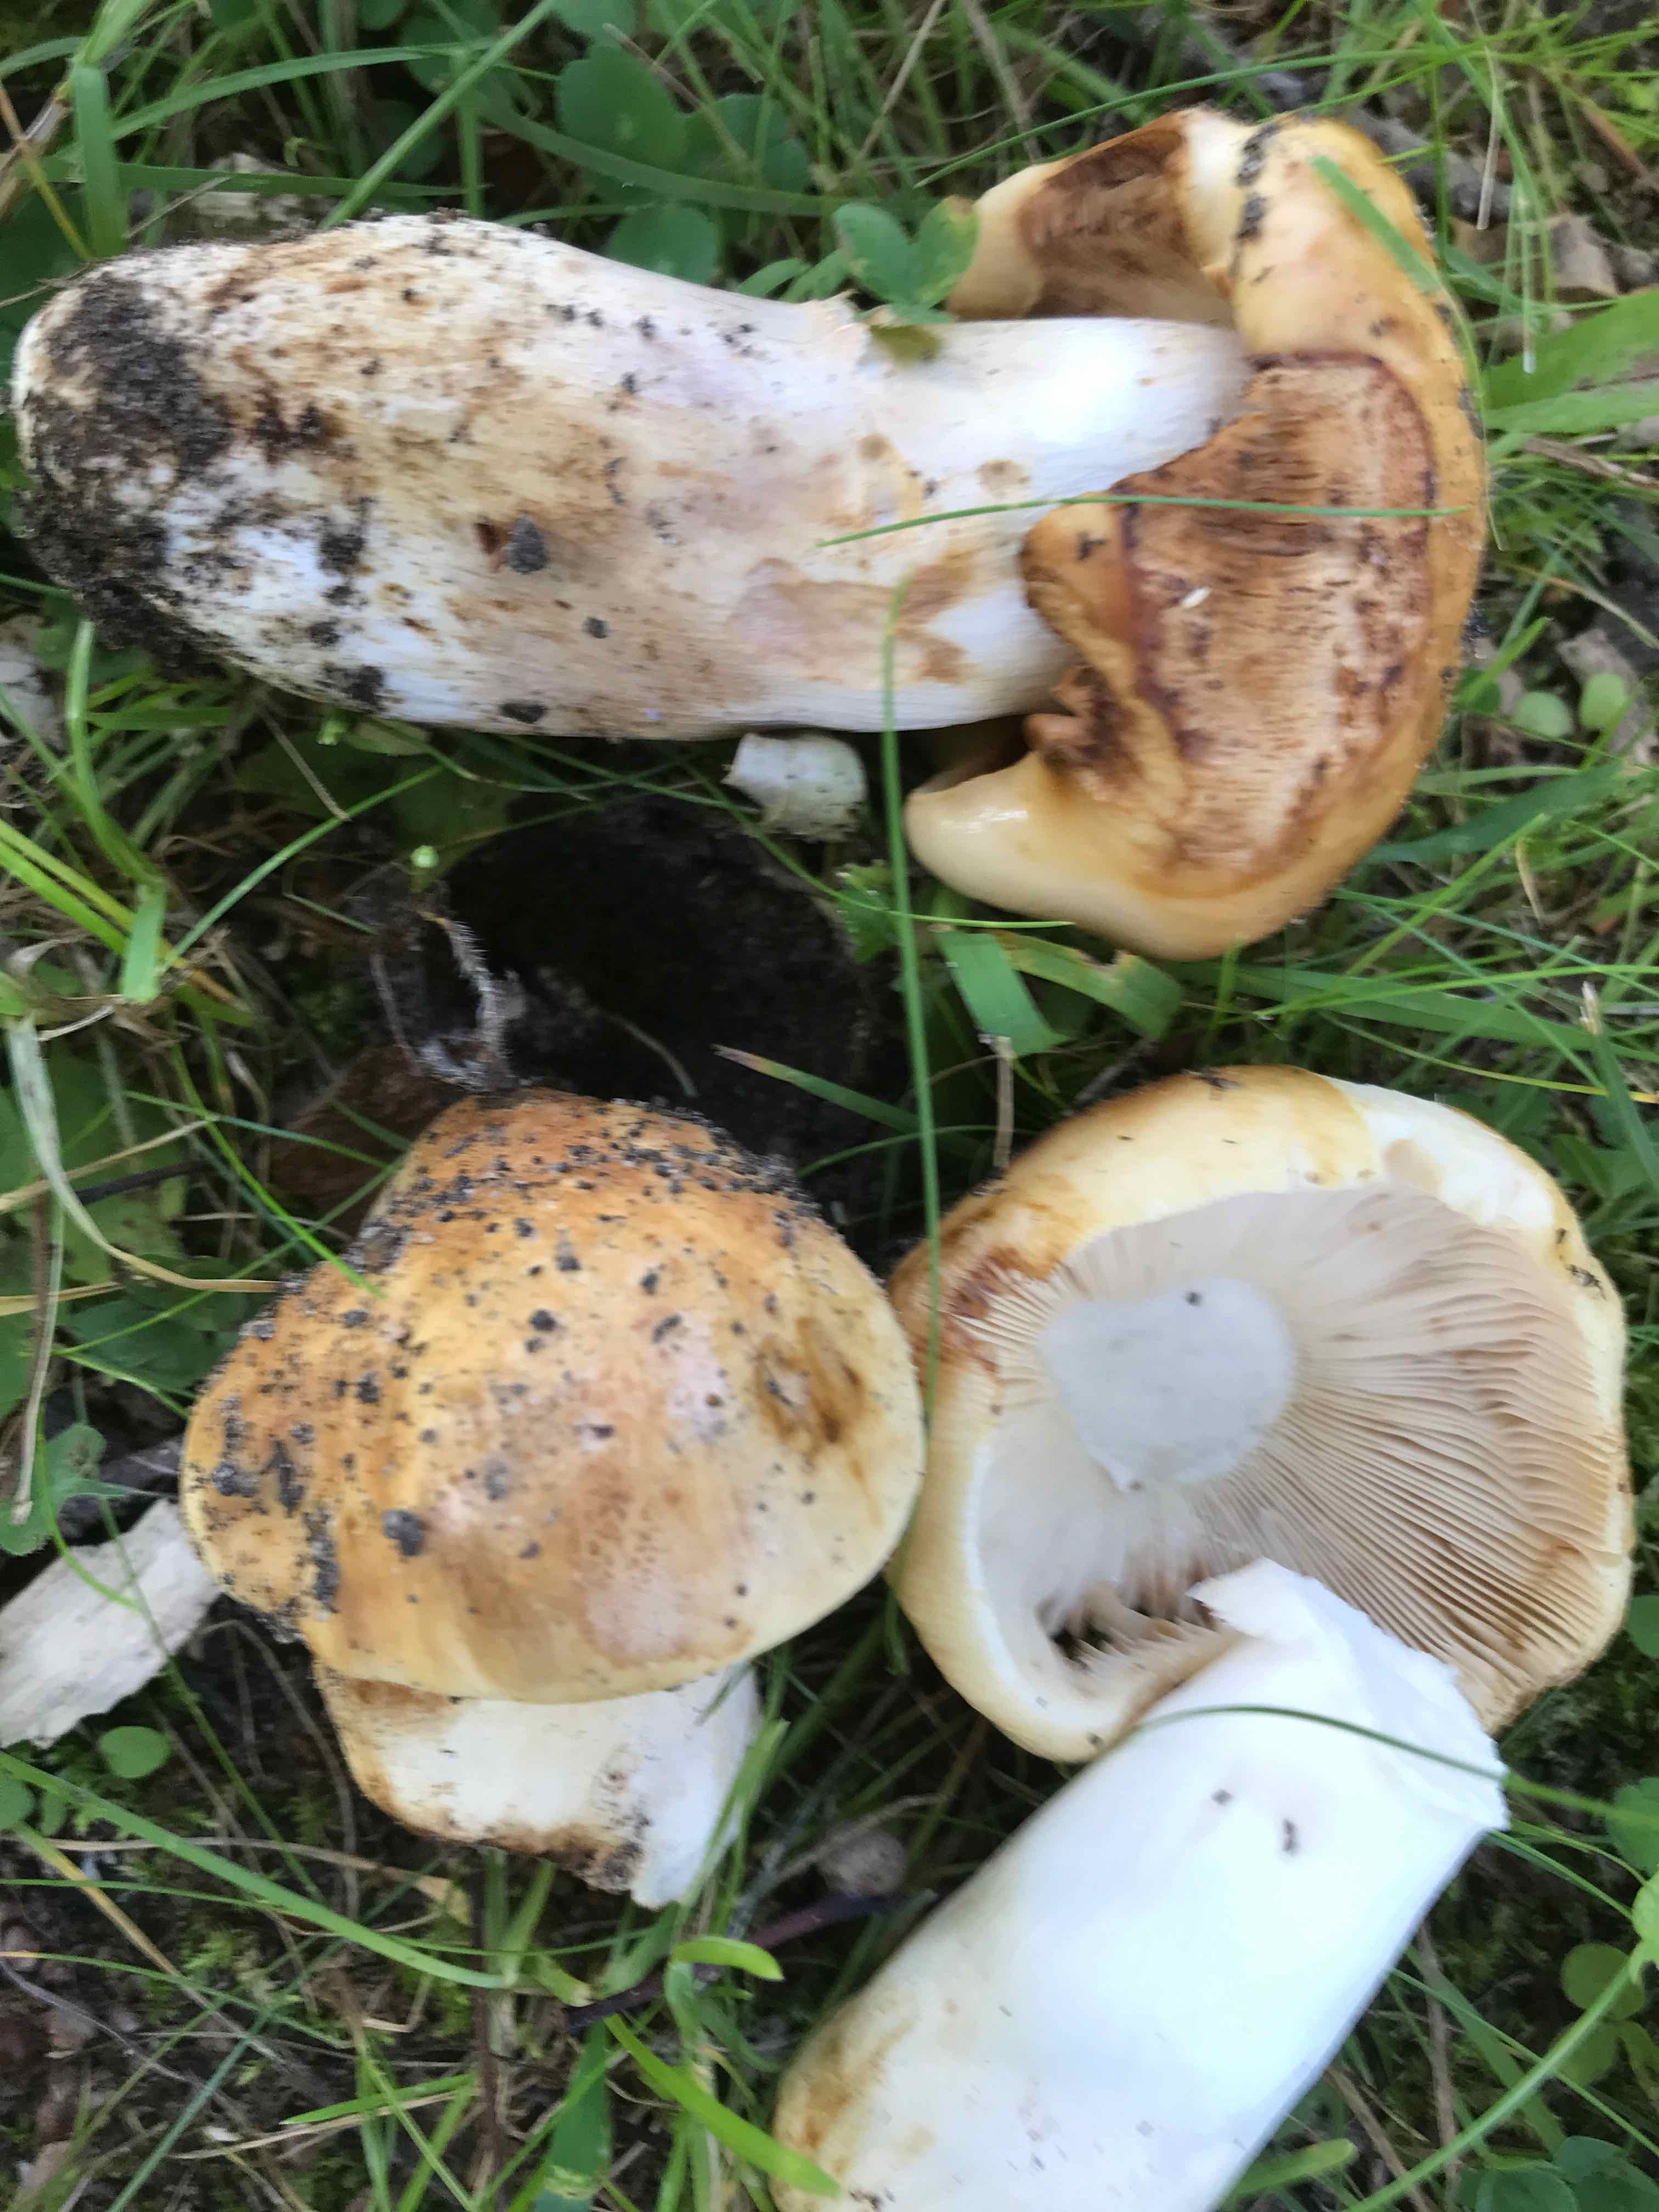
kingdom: Fungi
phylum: Basidiomycota
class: Agaricomycetes
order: Russulales
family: Russulaceae
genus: Russula
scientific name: Russula foetens
